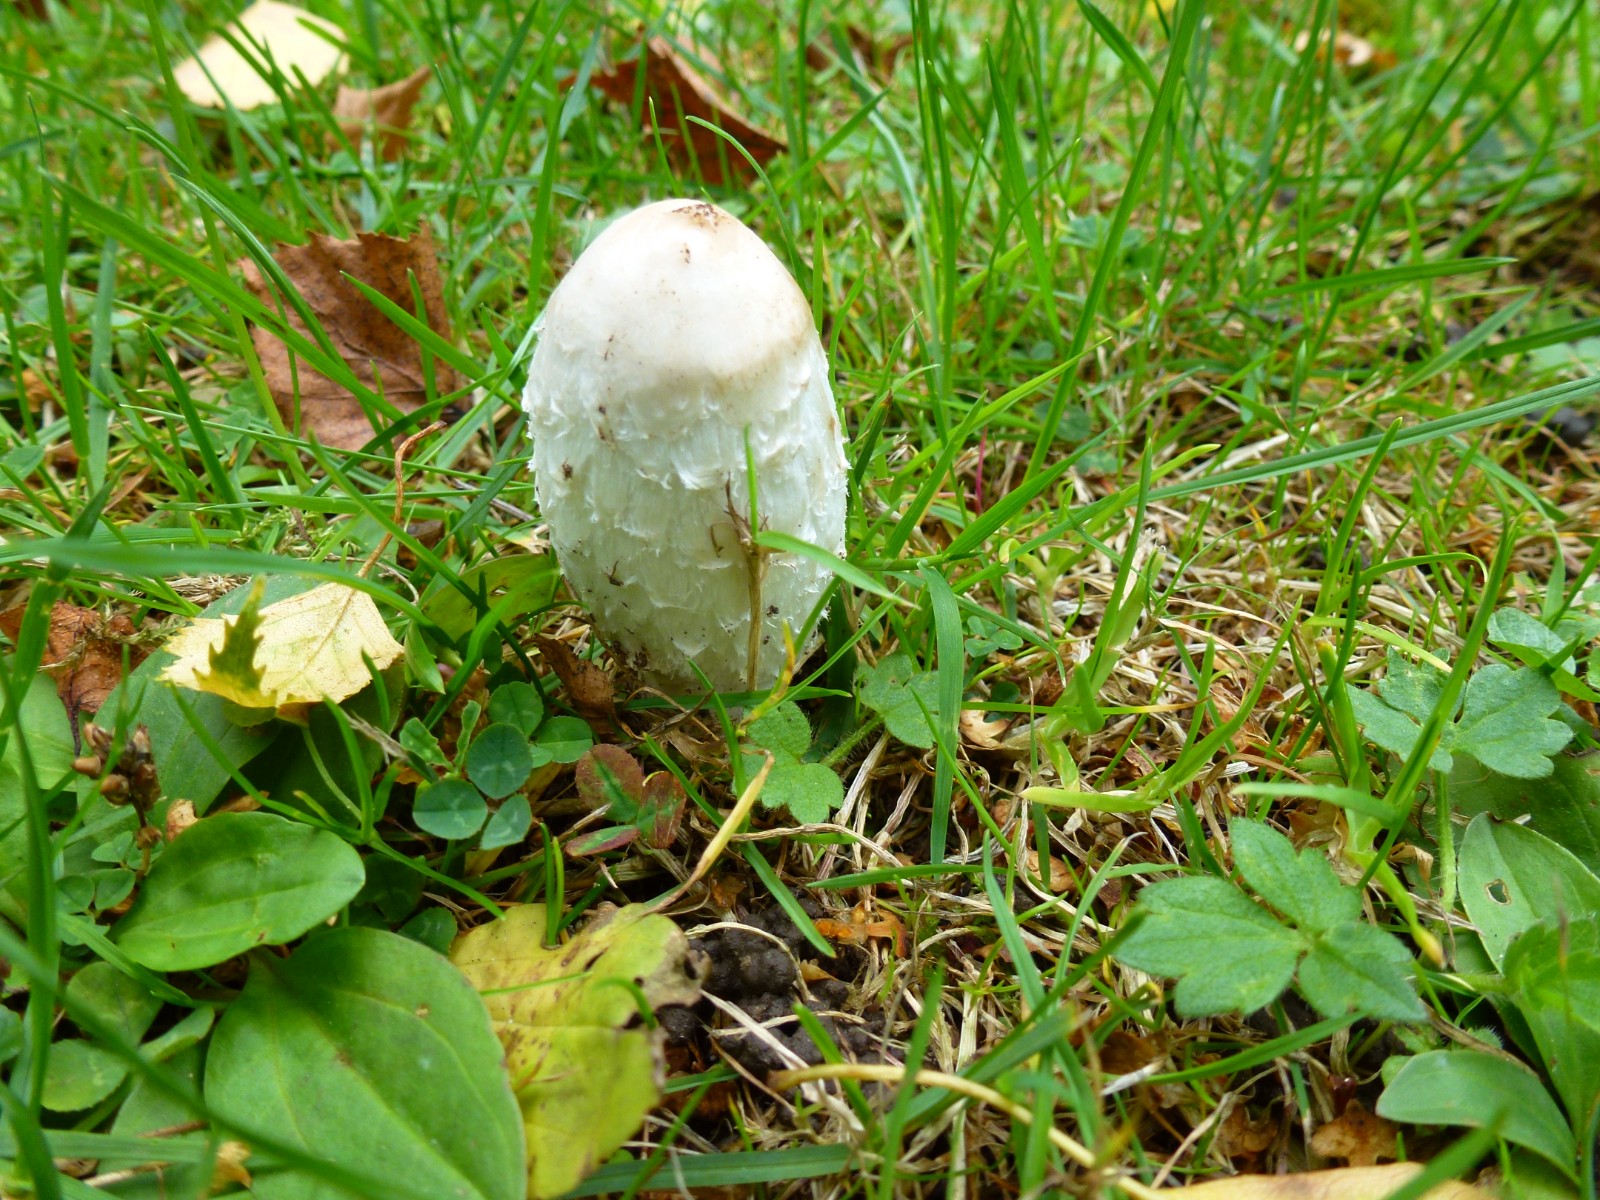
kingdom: Fungi
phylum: Basidiomycota
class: Agaricomycetes
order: Agaricales
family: Agaricaceae
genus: Coprinus
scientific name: Coprinus comatus
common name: stor parykhat
